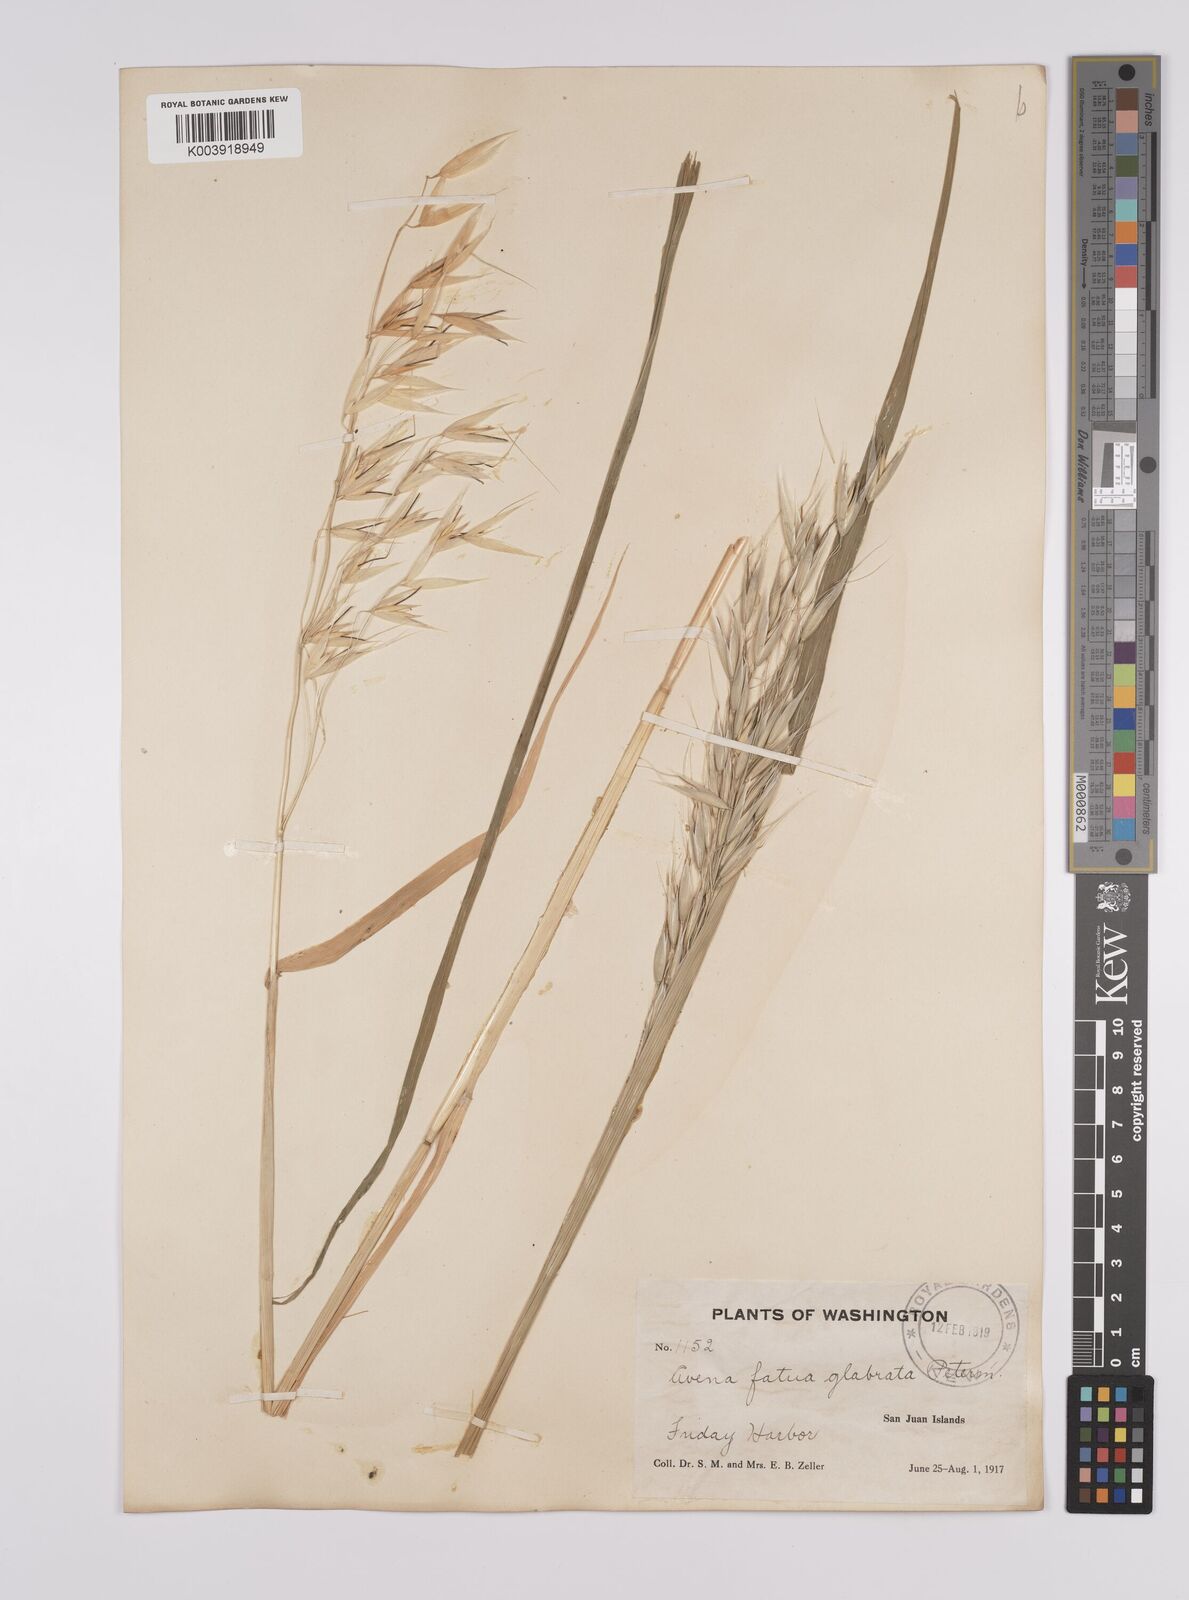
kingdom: Plantae
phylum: Tracheophyta
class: Liliopsida
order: Poales
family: Poaceae
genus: Avena
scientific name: Avena fatua
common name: Wild oat
